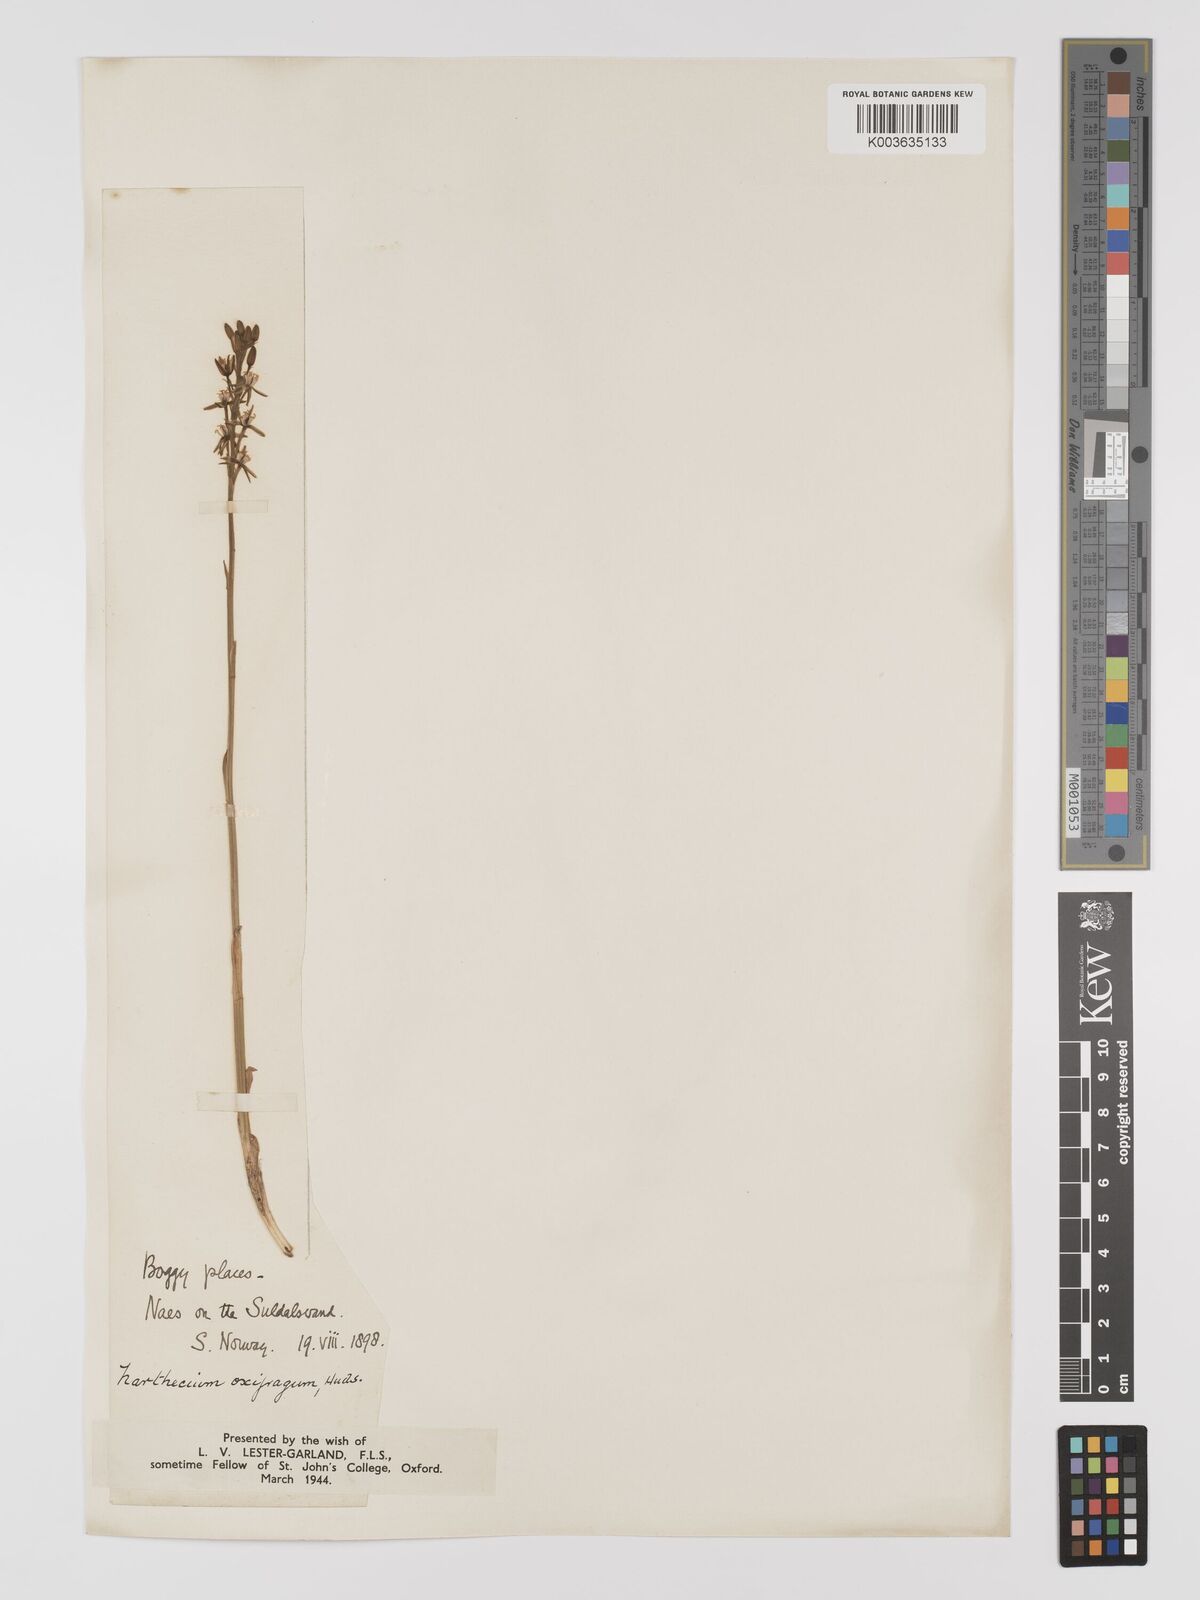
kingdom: Plantae
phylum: Tracheophyta
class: Liliopsida
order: Dioscoreales
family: Nartheciaceae
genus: Narthecium
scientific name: Narthecium ossifragum
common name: Bog asphodel
